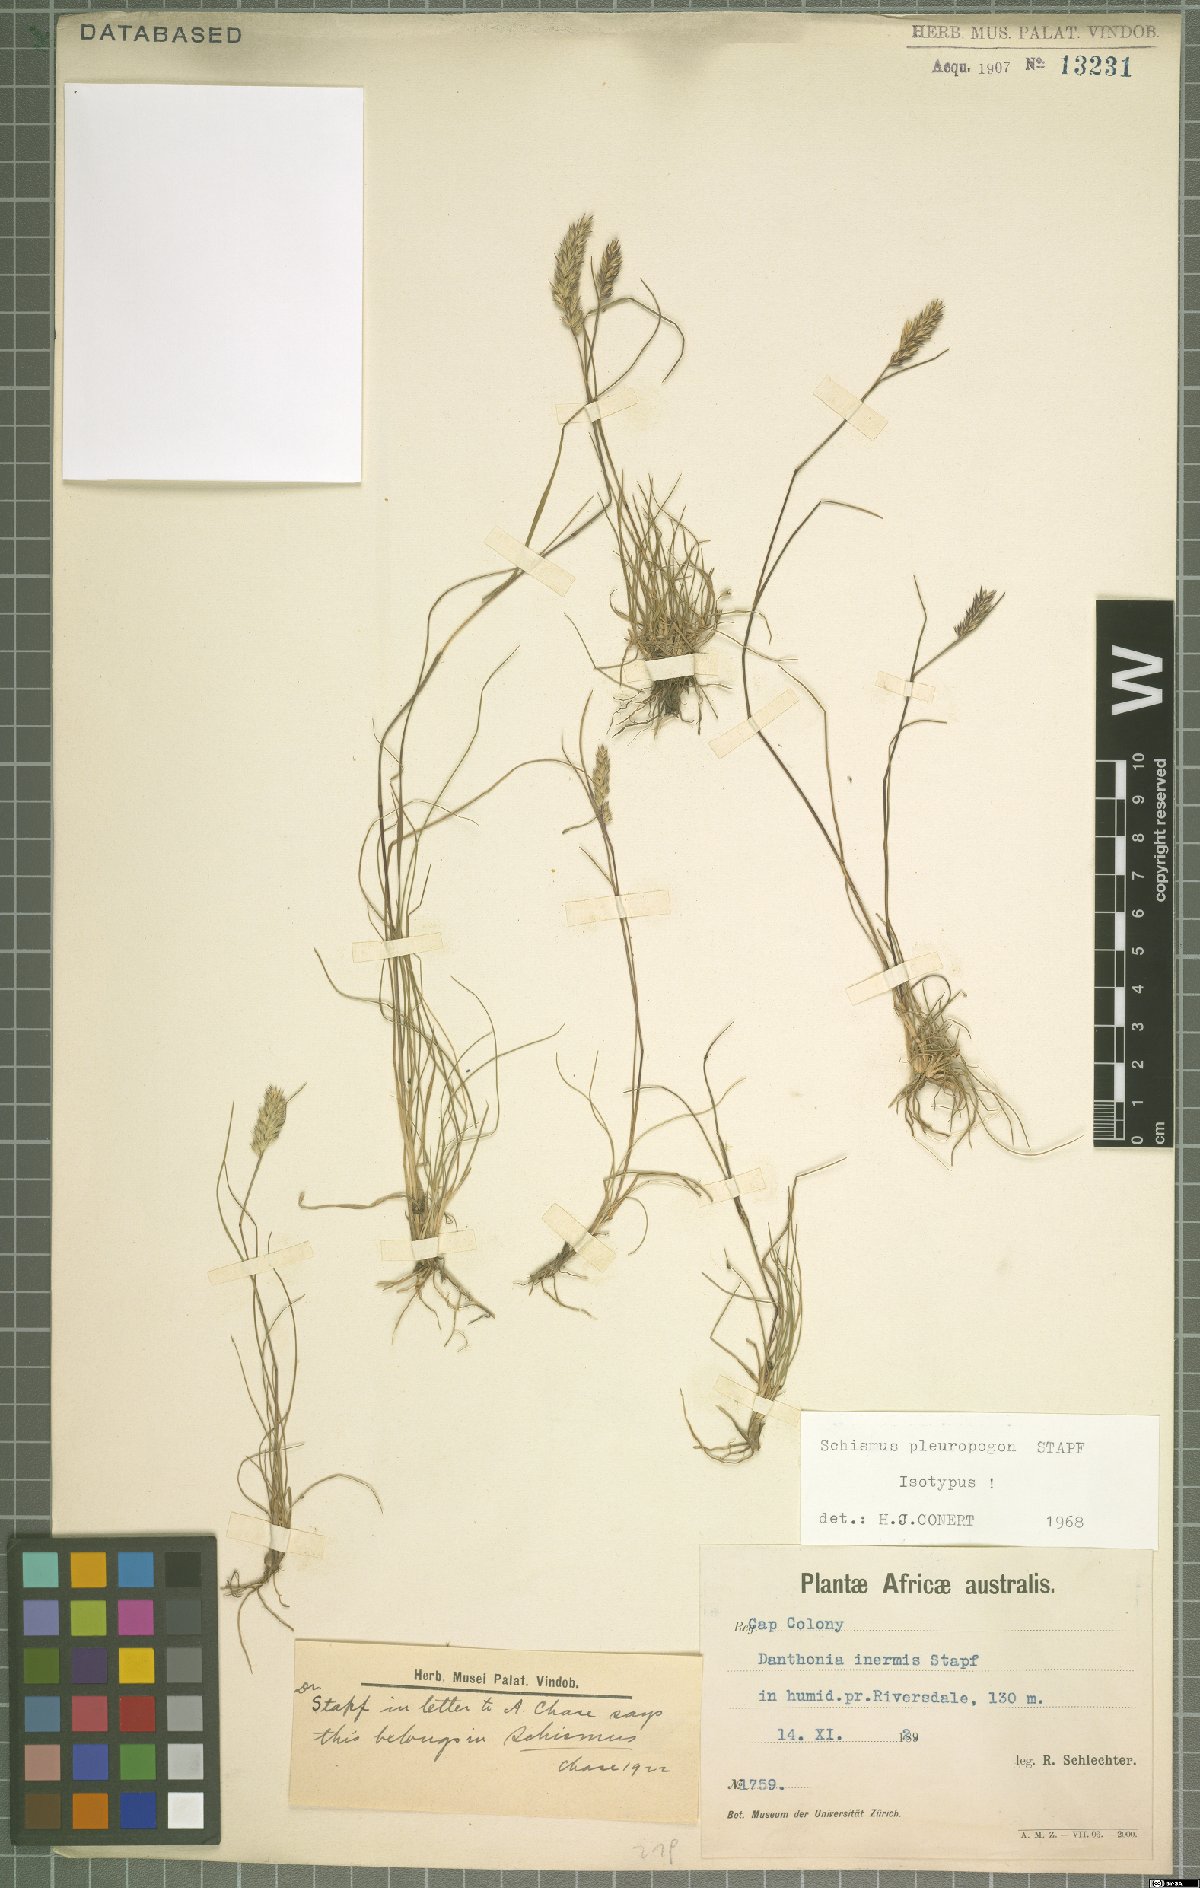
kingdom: Plantae
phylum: Tracheophyta
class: Liliopsida
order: Poales
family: Poaceae
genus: Tribolium
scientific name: Tribolium pleuropogon
